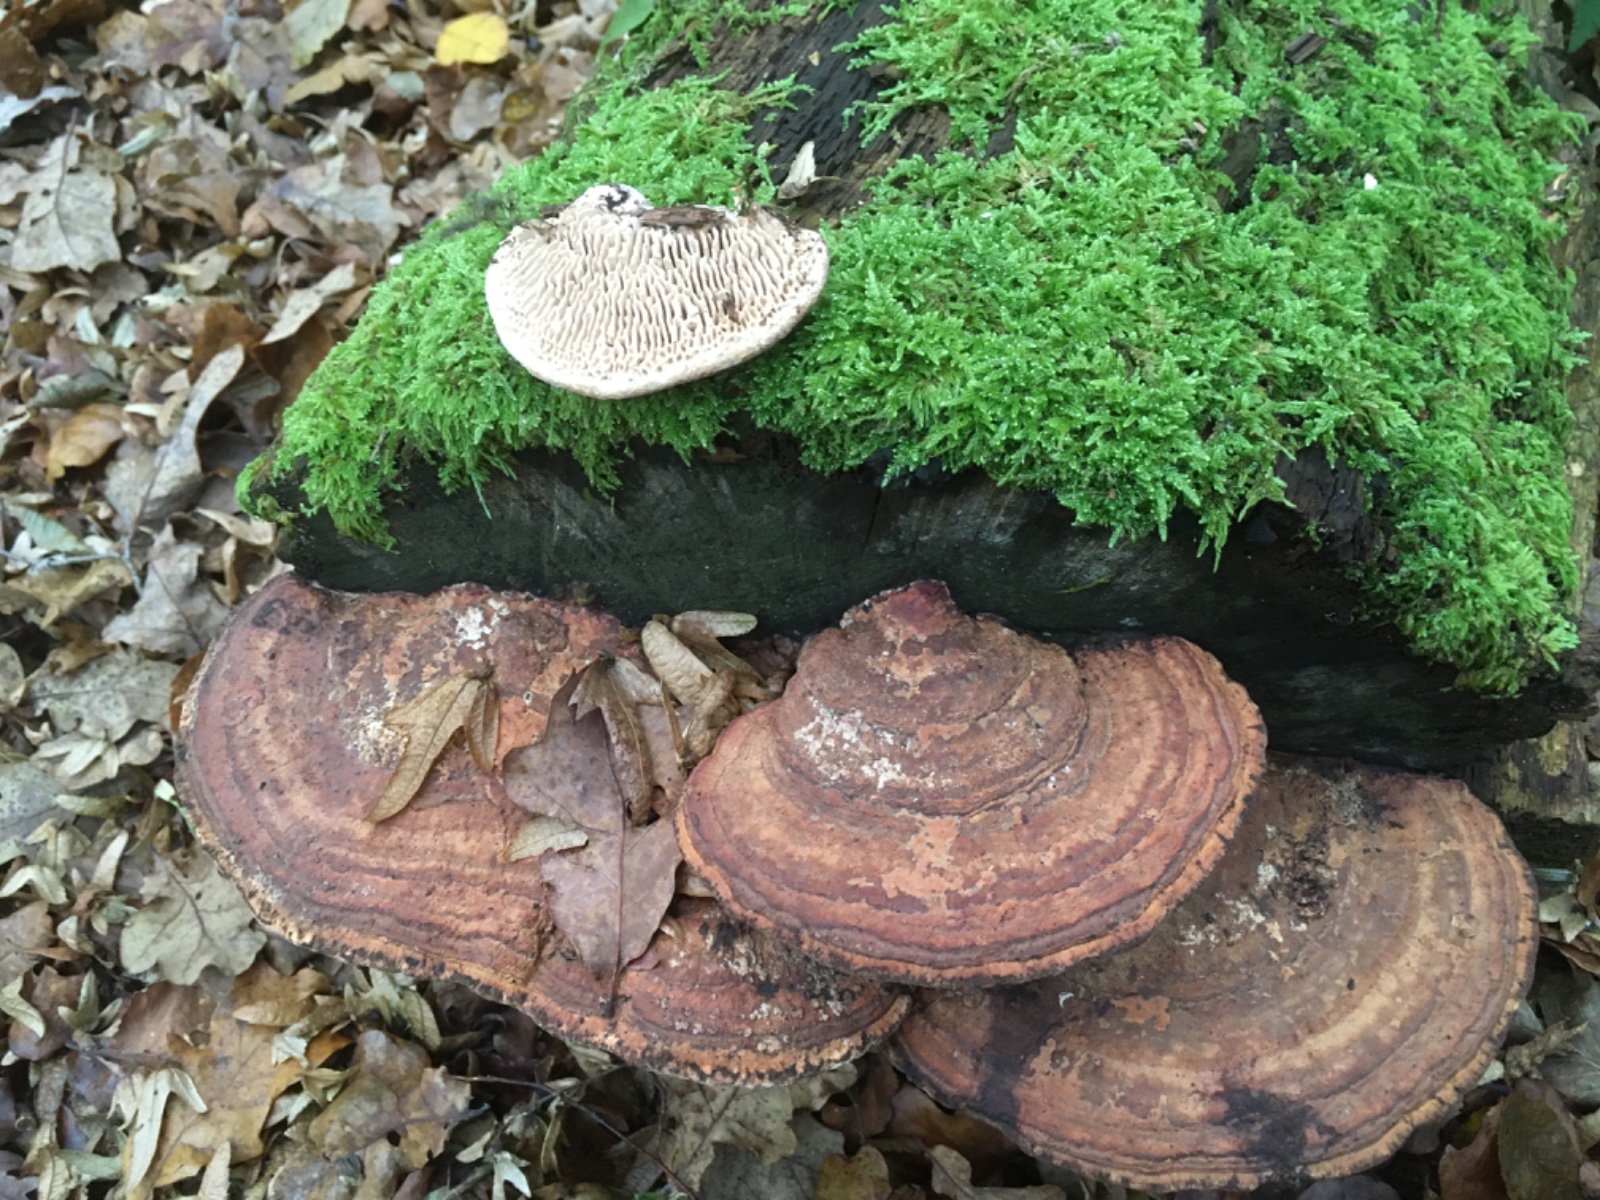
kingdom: Fungi
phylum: Basidiomycota
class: Agaricomycetes
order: Polyporales
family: Fomitopsidaceae
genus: Daedalea
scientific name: Daedalea quercina
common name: ege-labyrintsvamp
